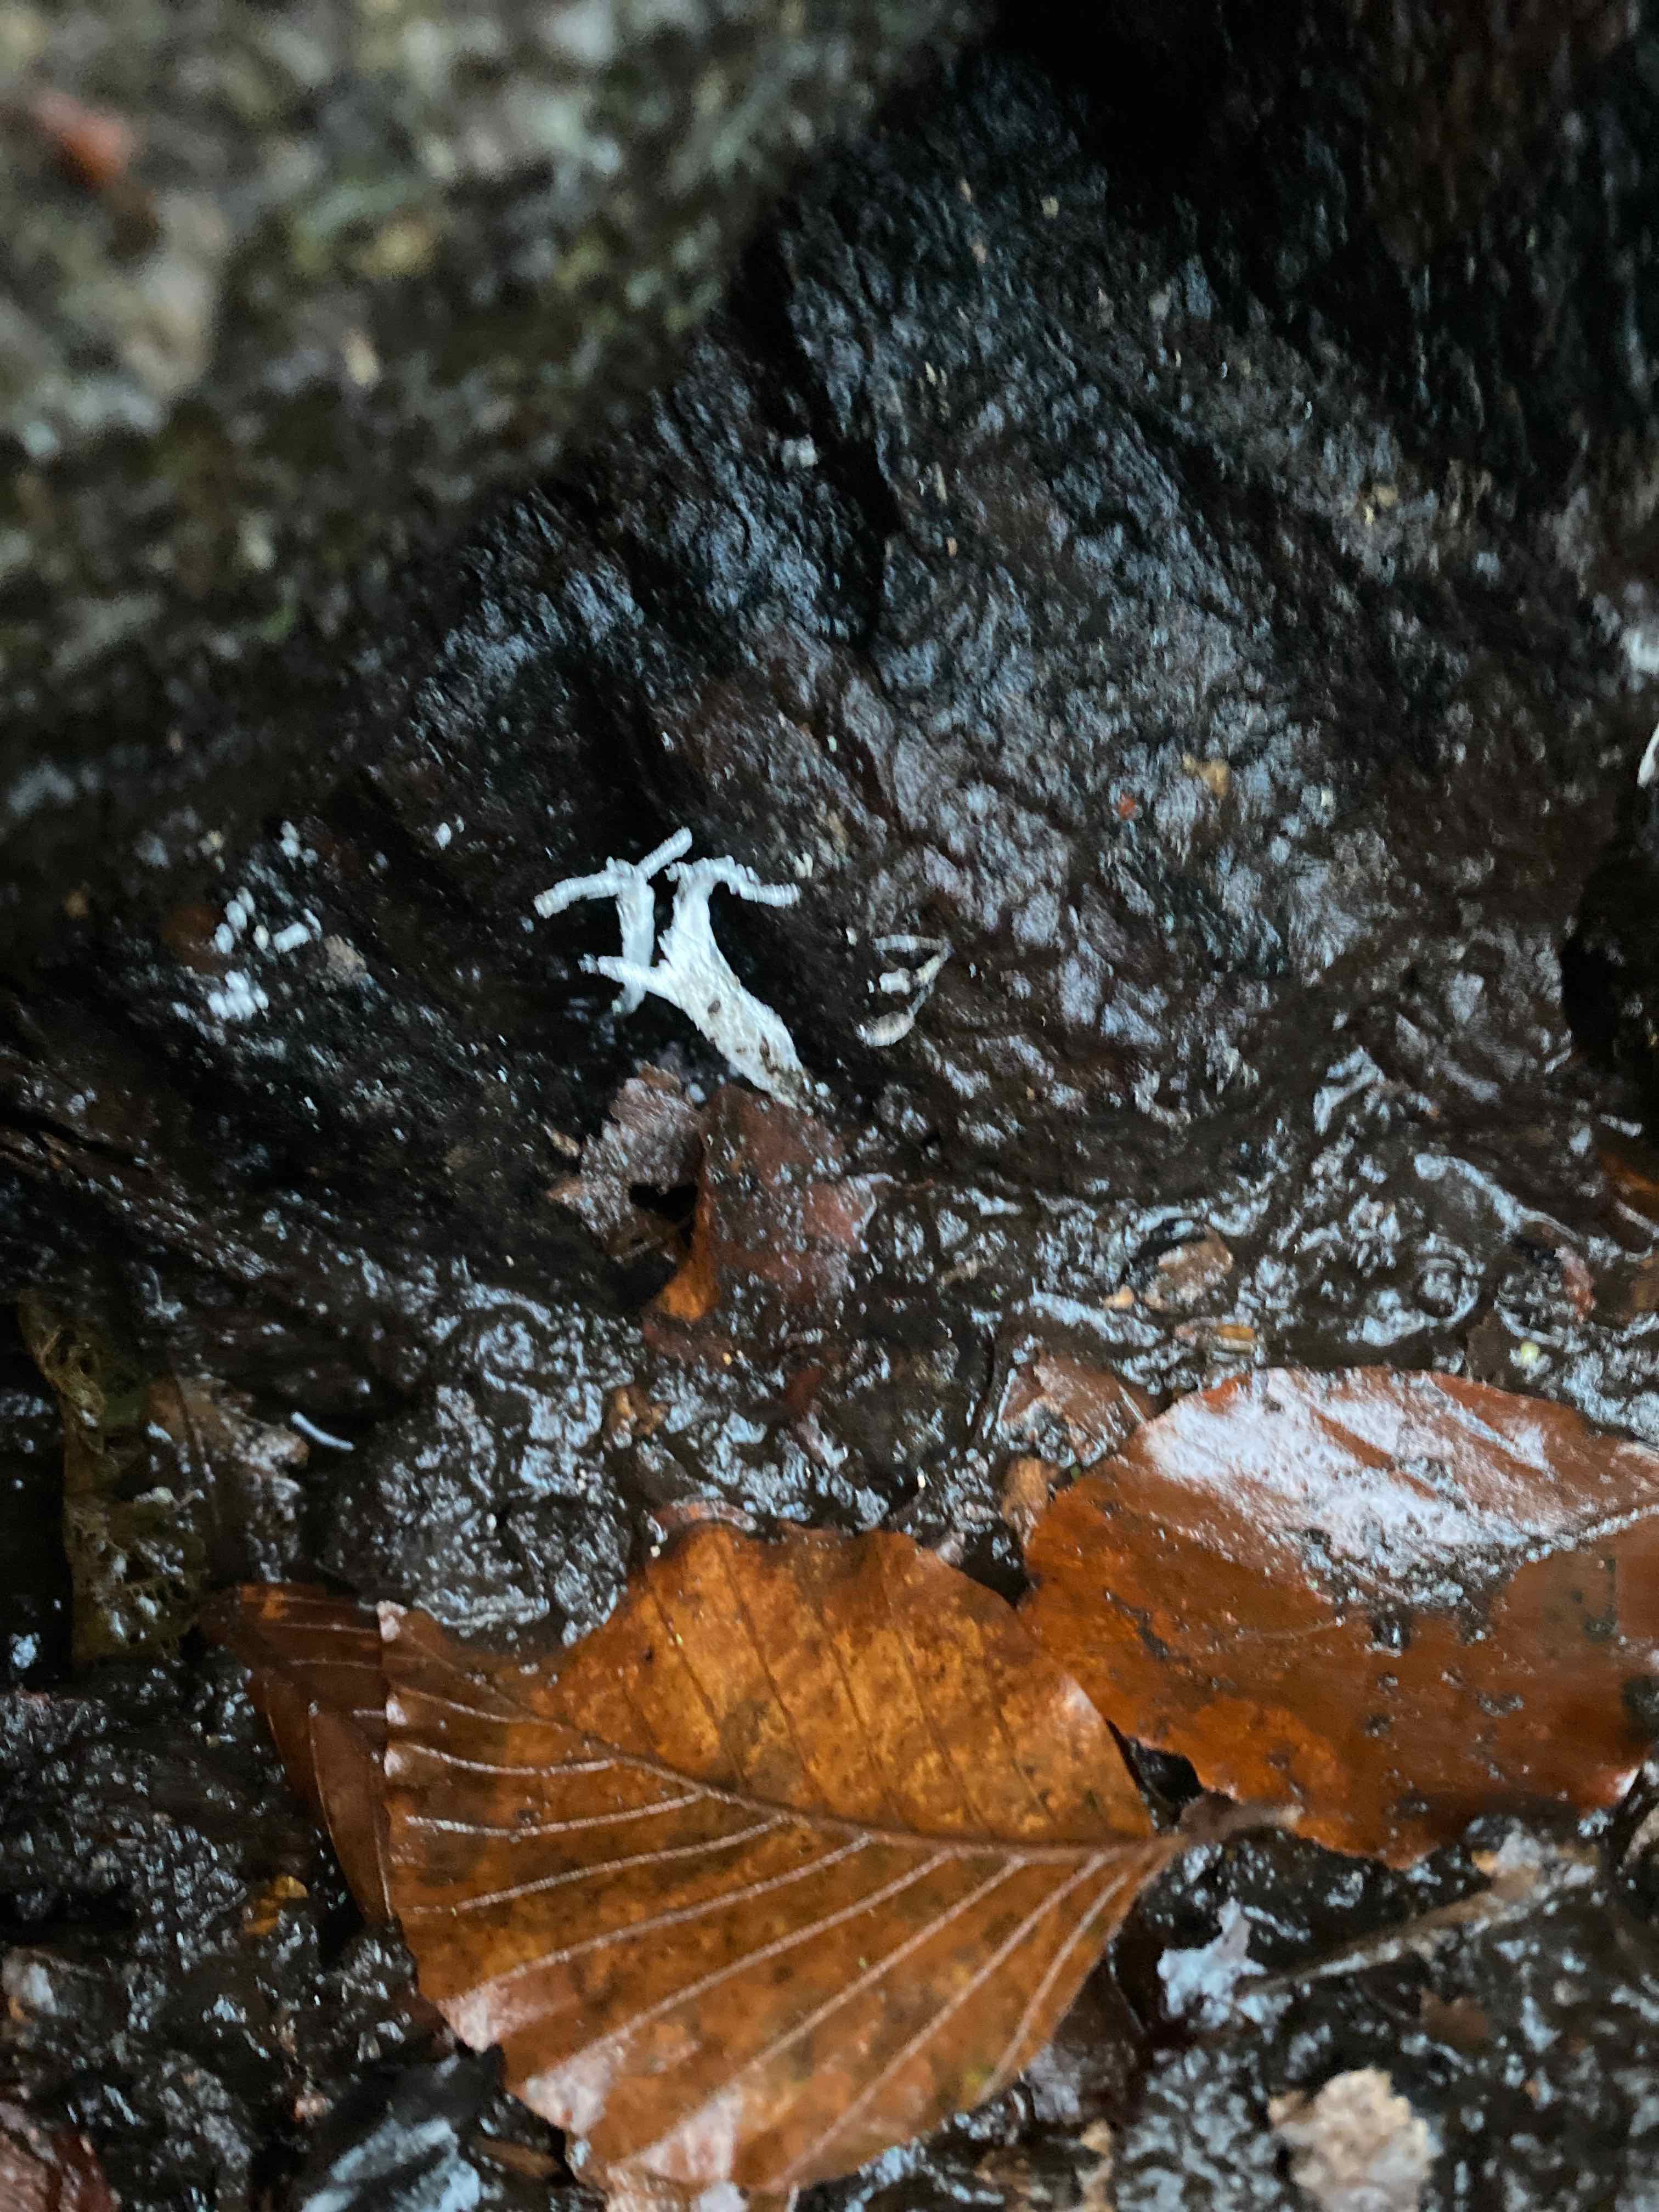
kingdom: Fungi
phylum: Ascomycota
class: Sordariomycetes
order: Xylariales
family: Xylariaceae
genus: Xylaria
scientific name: Xylaria hypoxylon
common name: grenet stødsvamp
